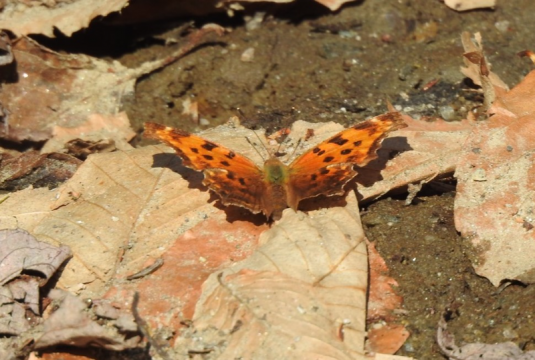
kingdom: Animalia
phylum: Arthropoda
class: Insecta
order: Lepidoptera
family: Nymphalidae
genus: Polygonia
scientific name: Polygonia comma
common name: Eastern Comma
